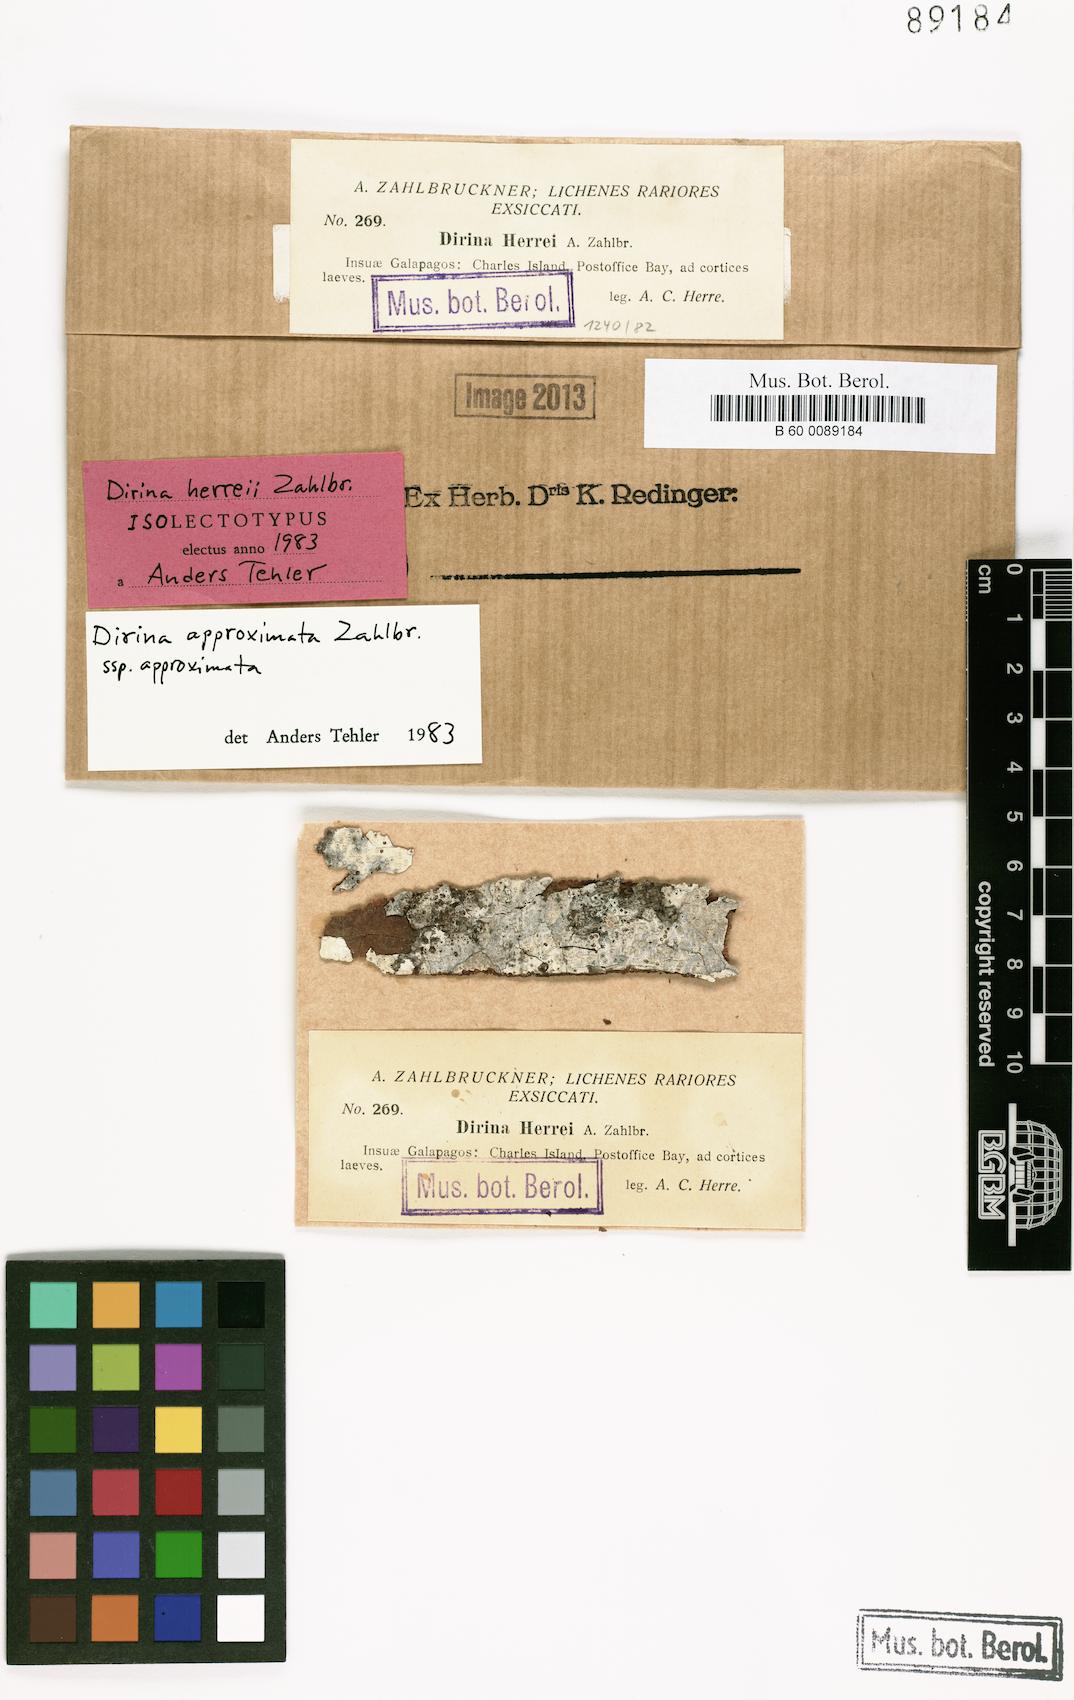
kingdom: Fungi
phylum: Ascomycota
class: Arthoniomycetes
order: Arthoniales
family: Roccellaceae
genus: Dirina
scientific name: Dirina approximata
